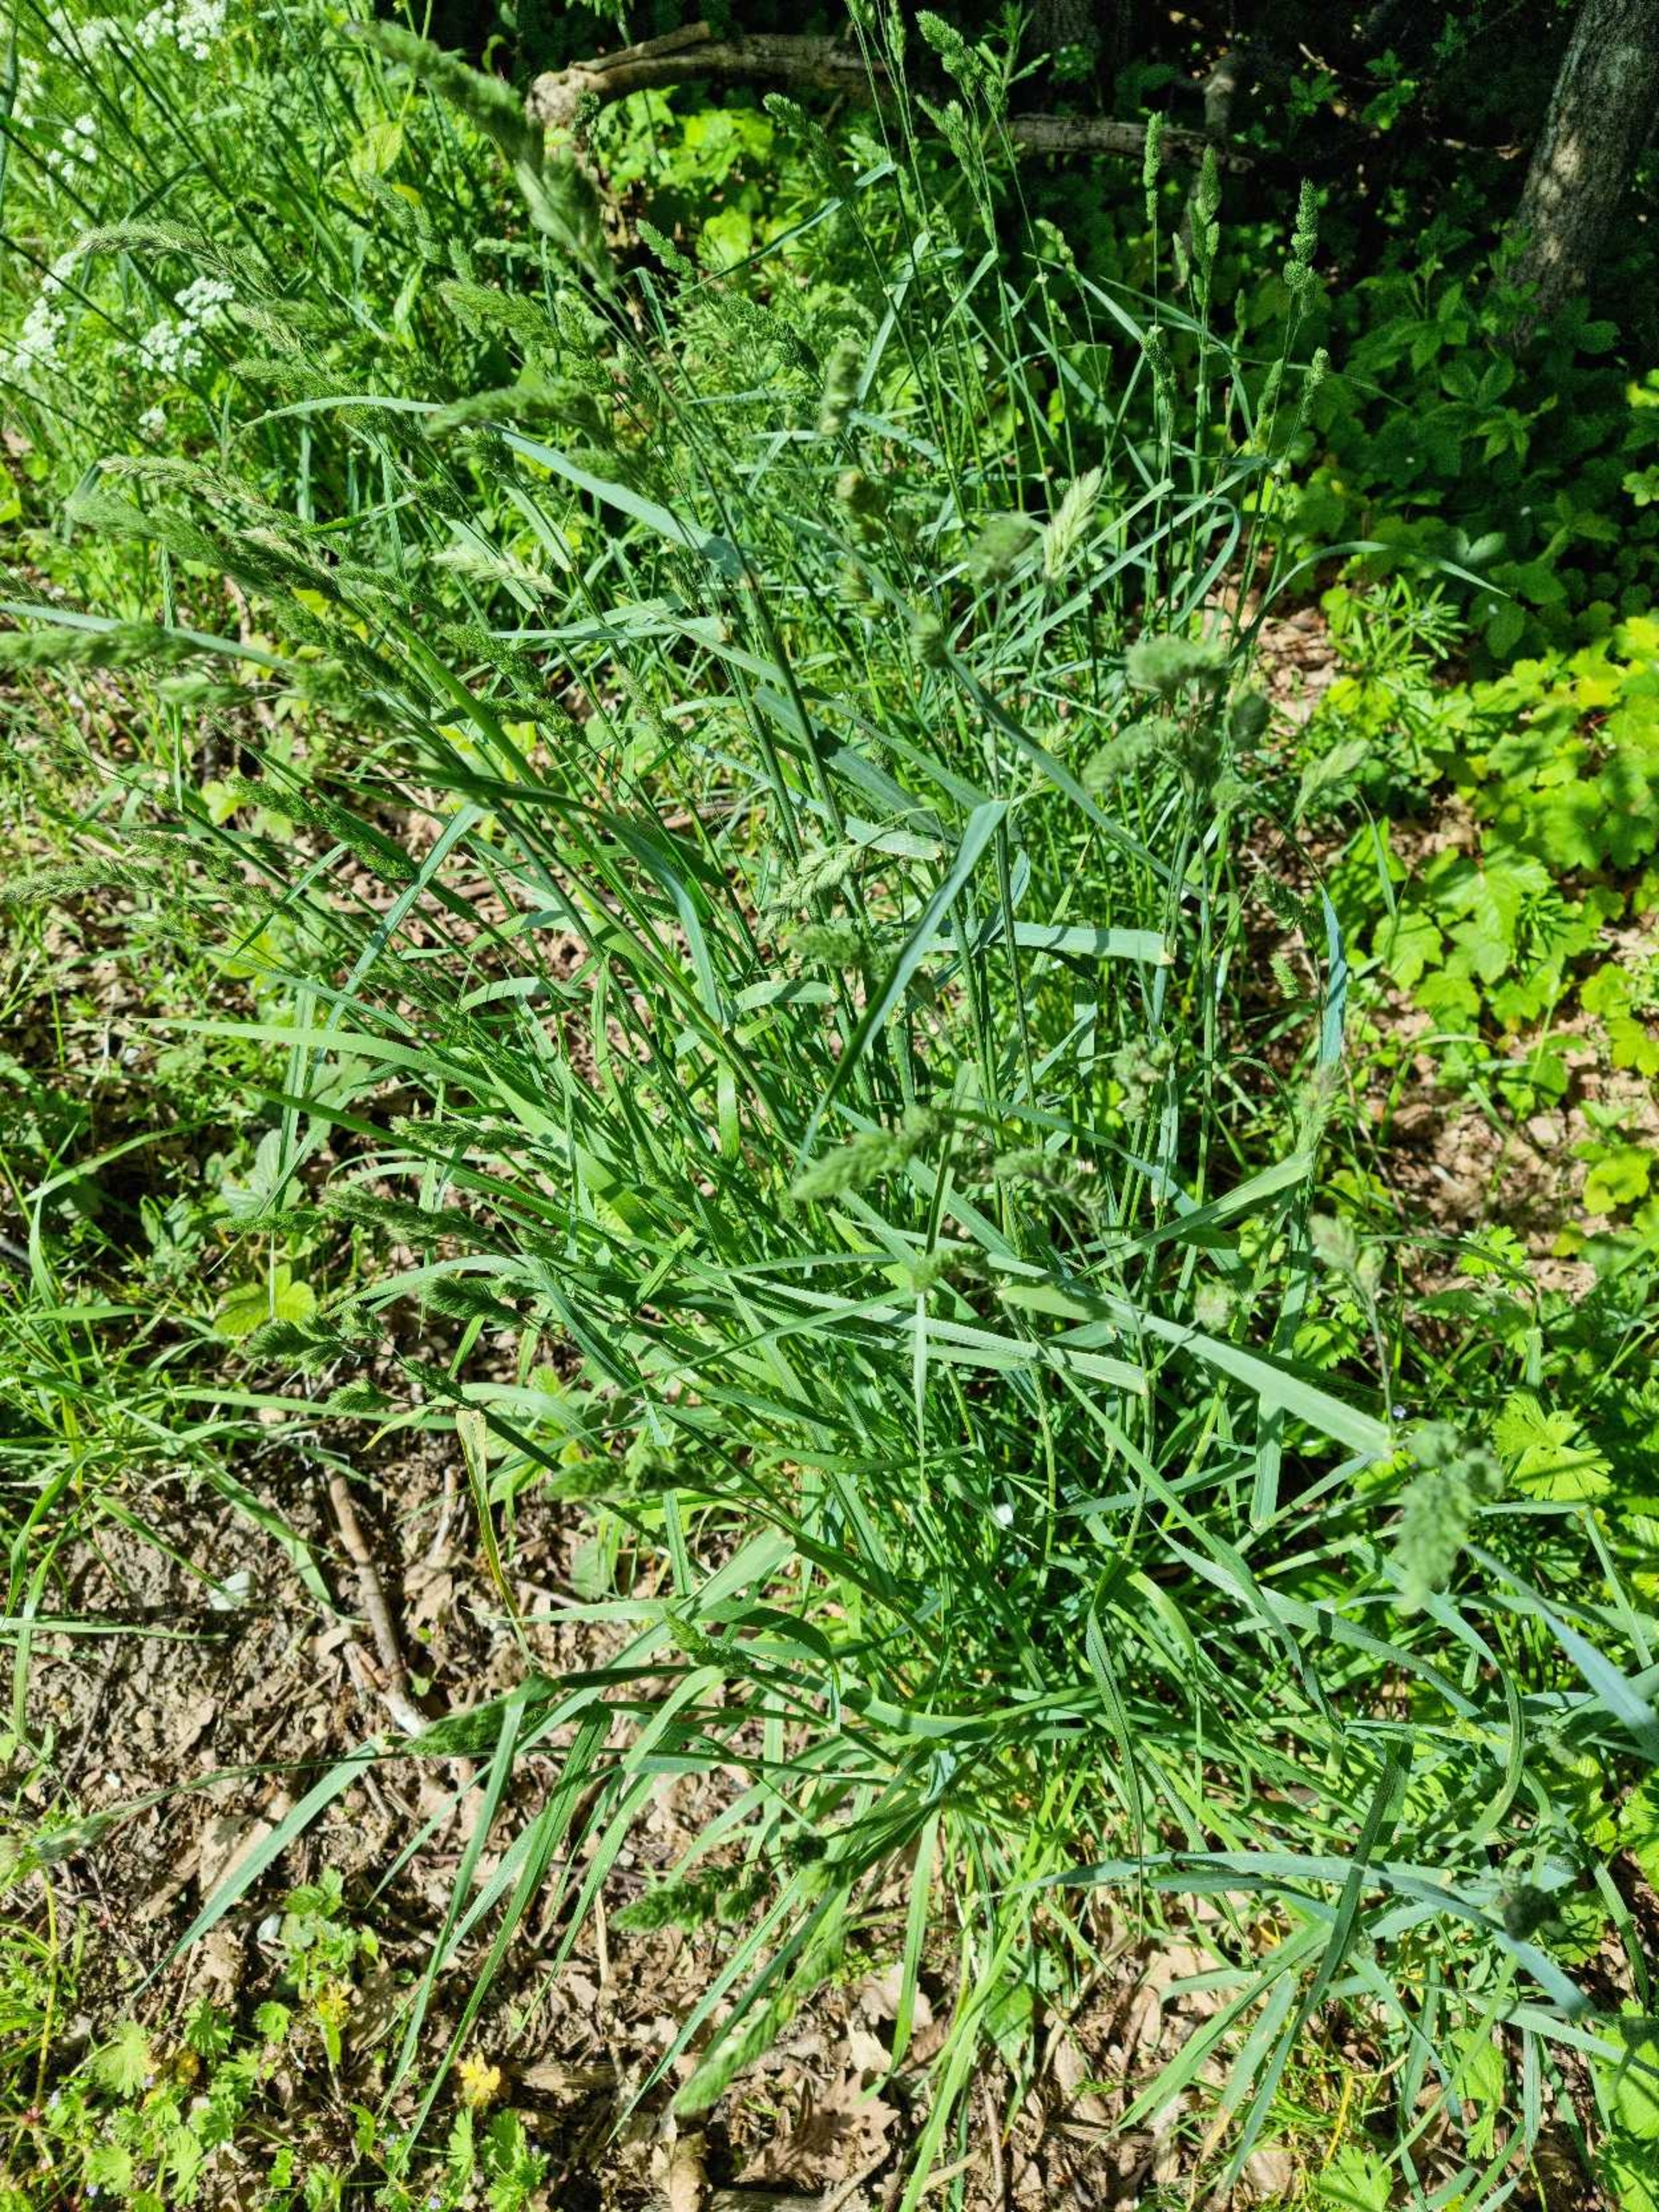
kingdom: Plantae
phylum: Tracheophyta
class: Liliopsida
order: Poales
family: Poaceae
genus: Dactylis
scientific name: Dactylis glomerata
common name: Almindelig hundegræs
